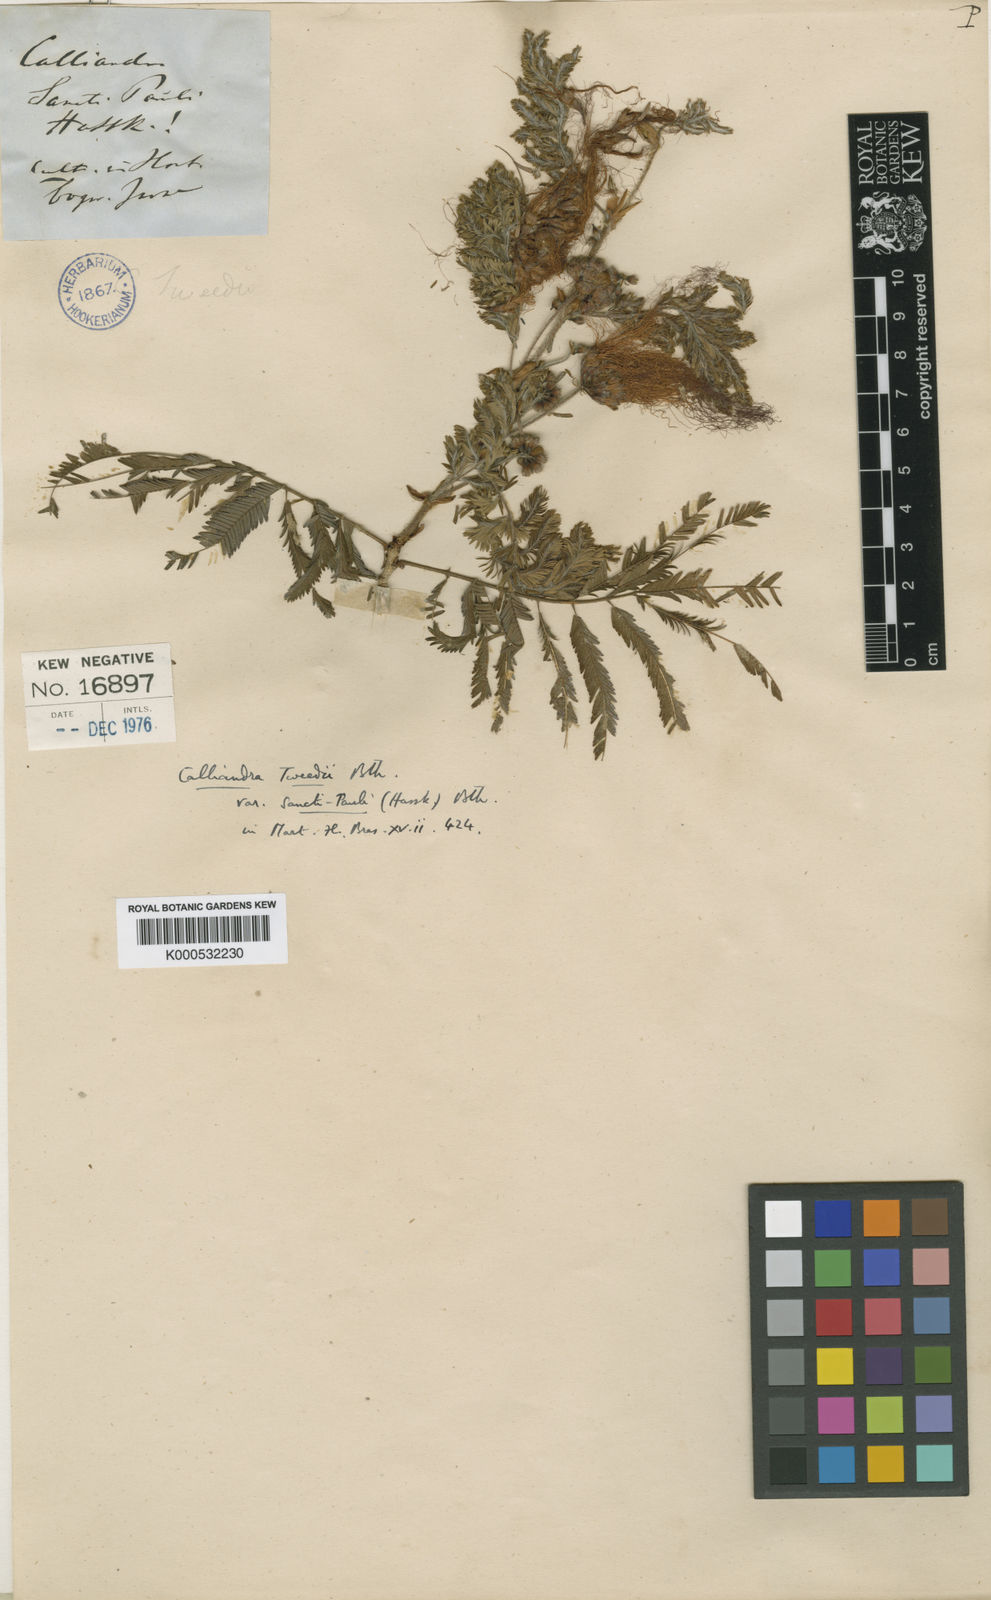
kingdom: Plantae
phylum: Tracheophyta
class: Magnoliopsida
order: Fabales
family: Fabaceae
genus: Calliandra
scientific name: Calliandra foliolosa
